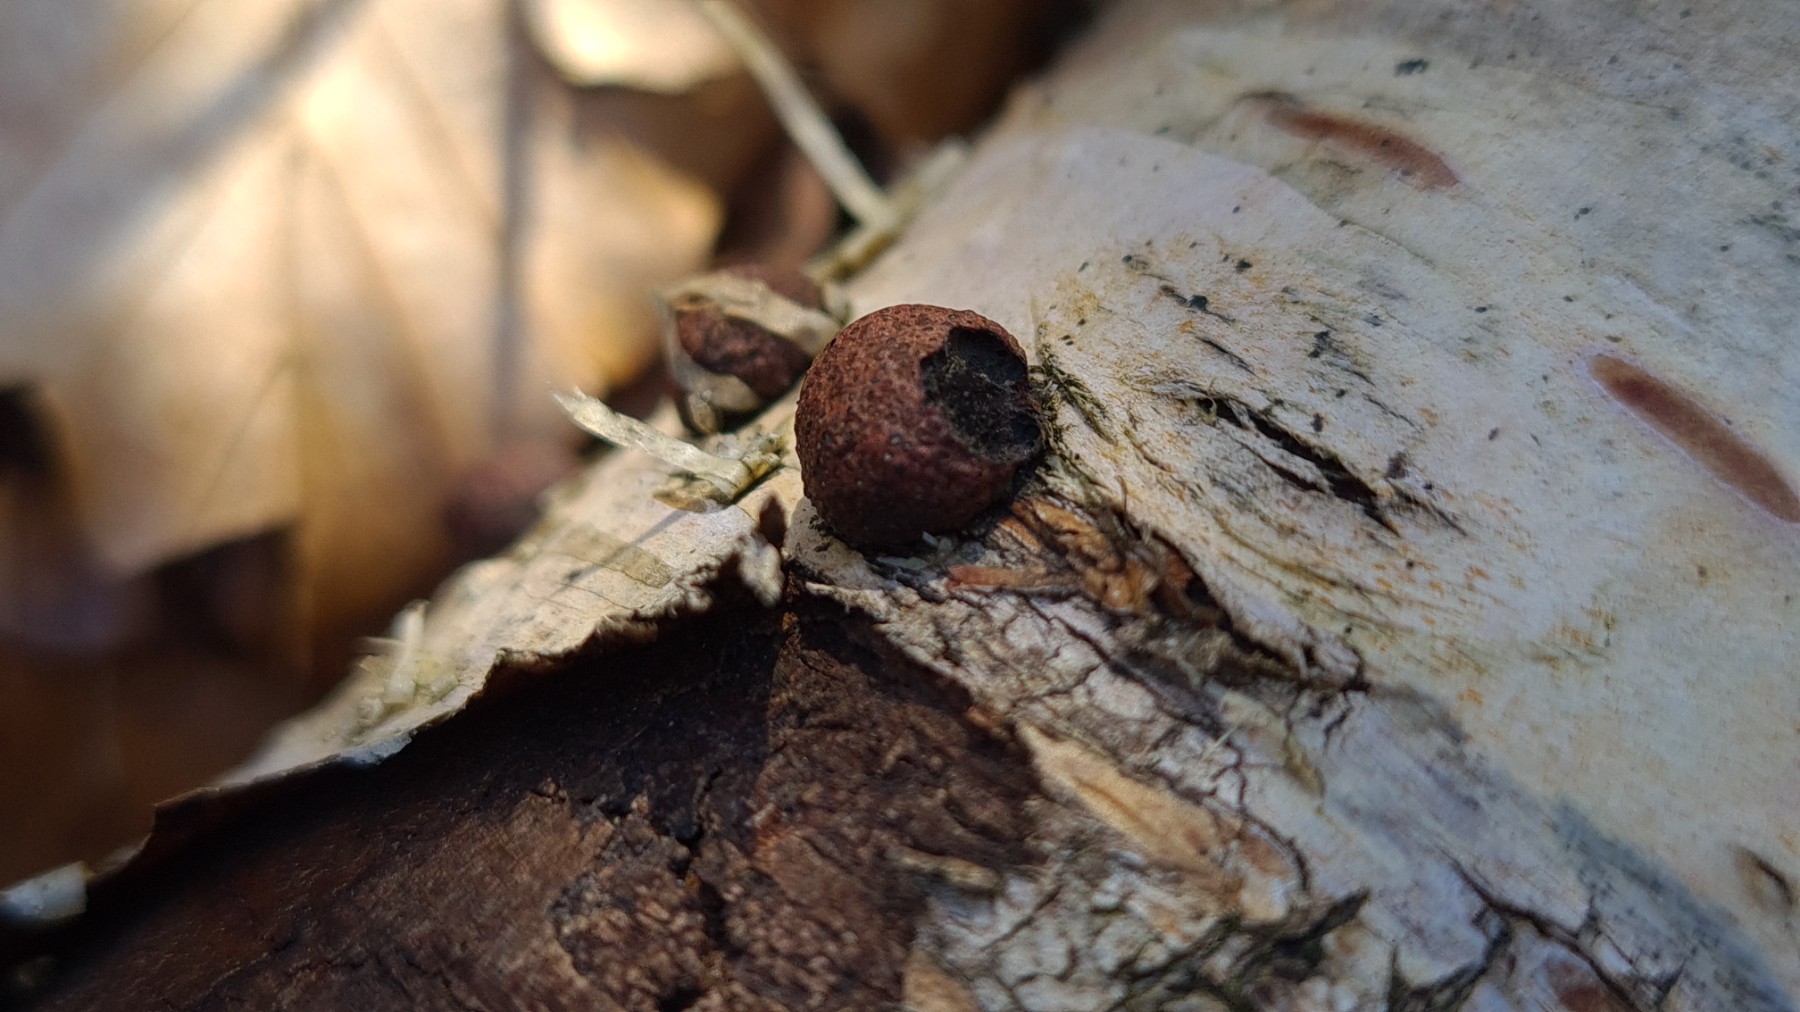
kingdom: Fungi
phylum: Ascomycota
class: Sordariomycetes
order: Xylariales
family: Hypoxylaceae
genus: Hypoxylon
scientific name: Hypoxylon
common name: kulbær
